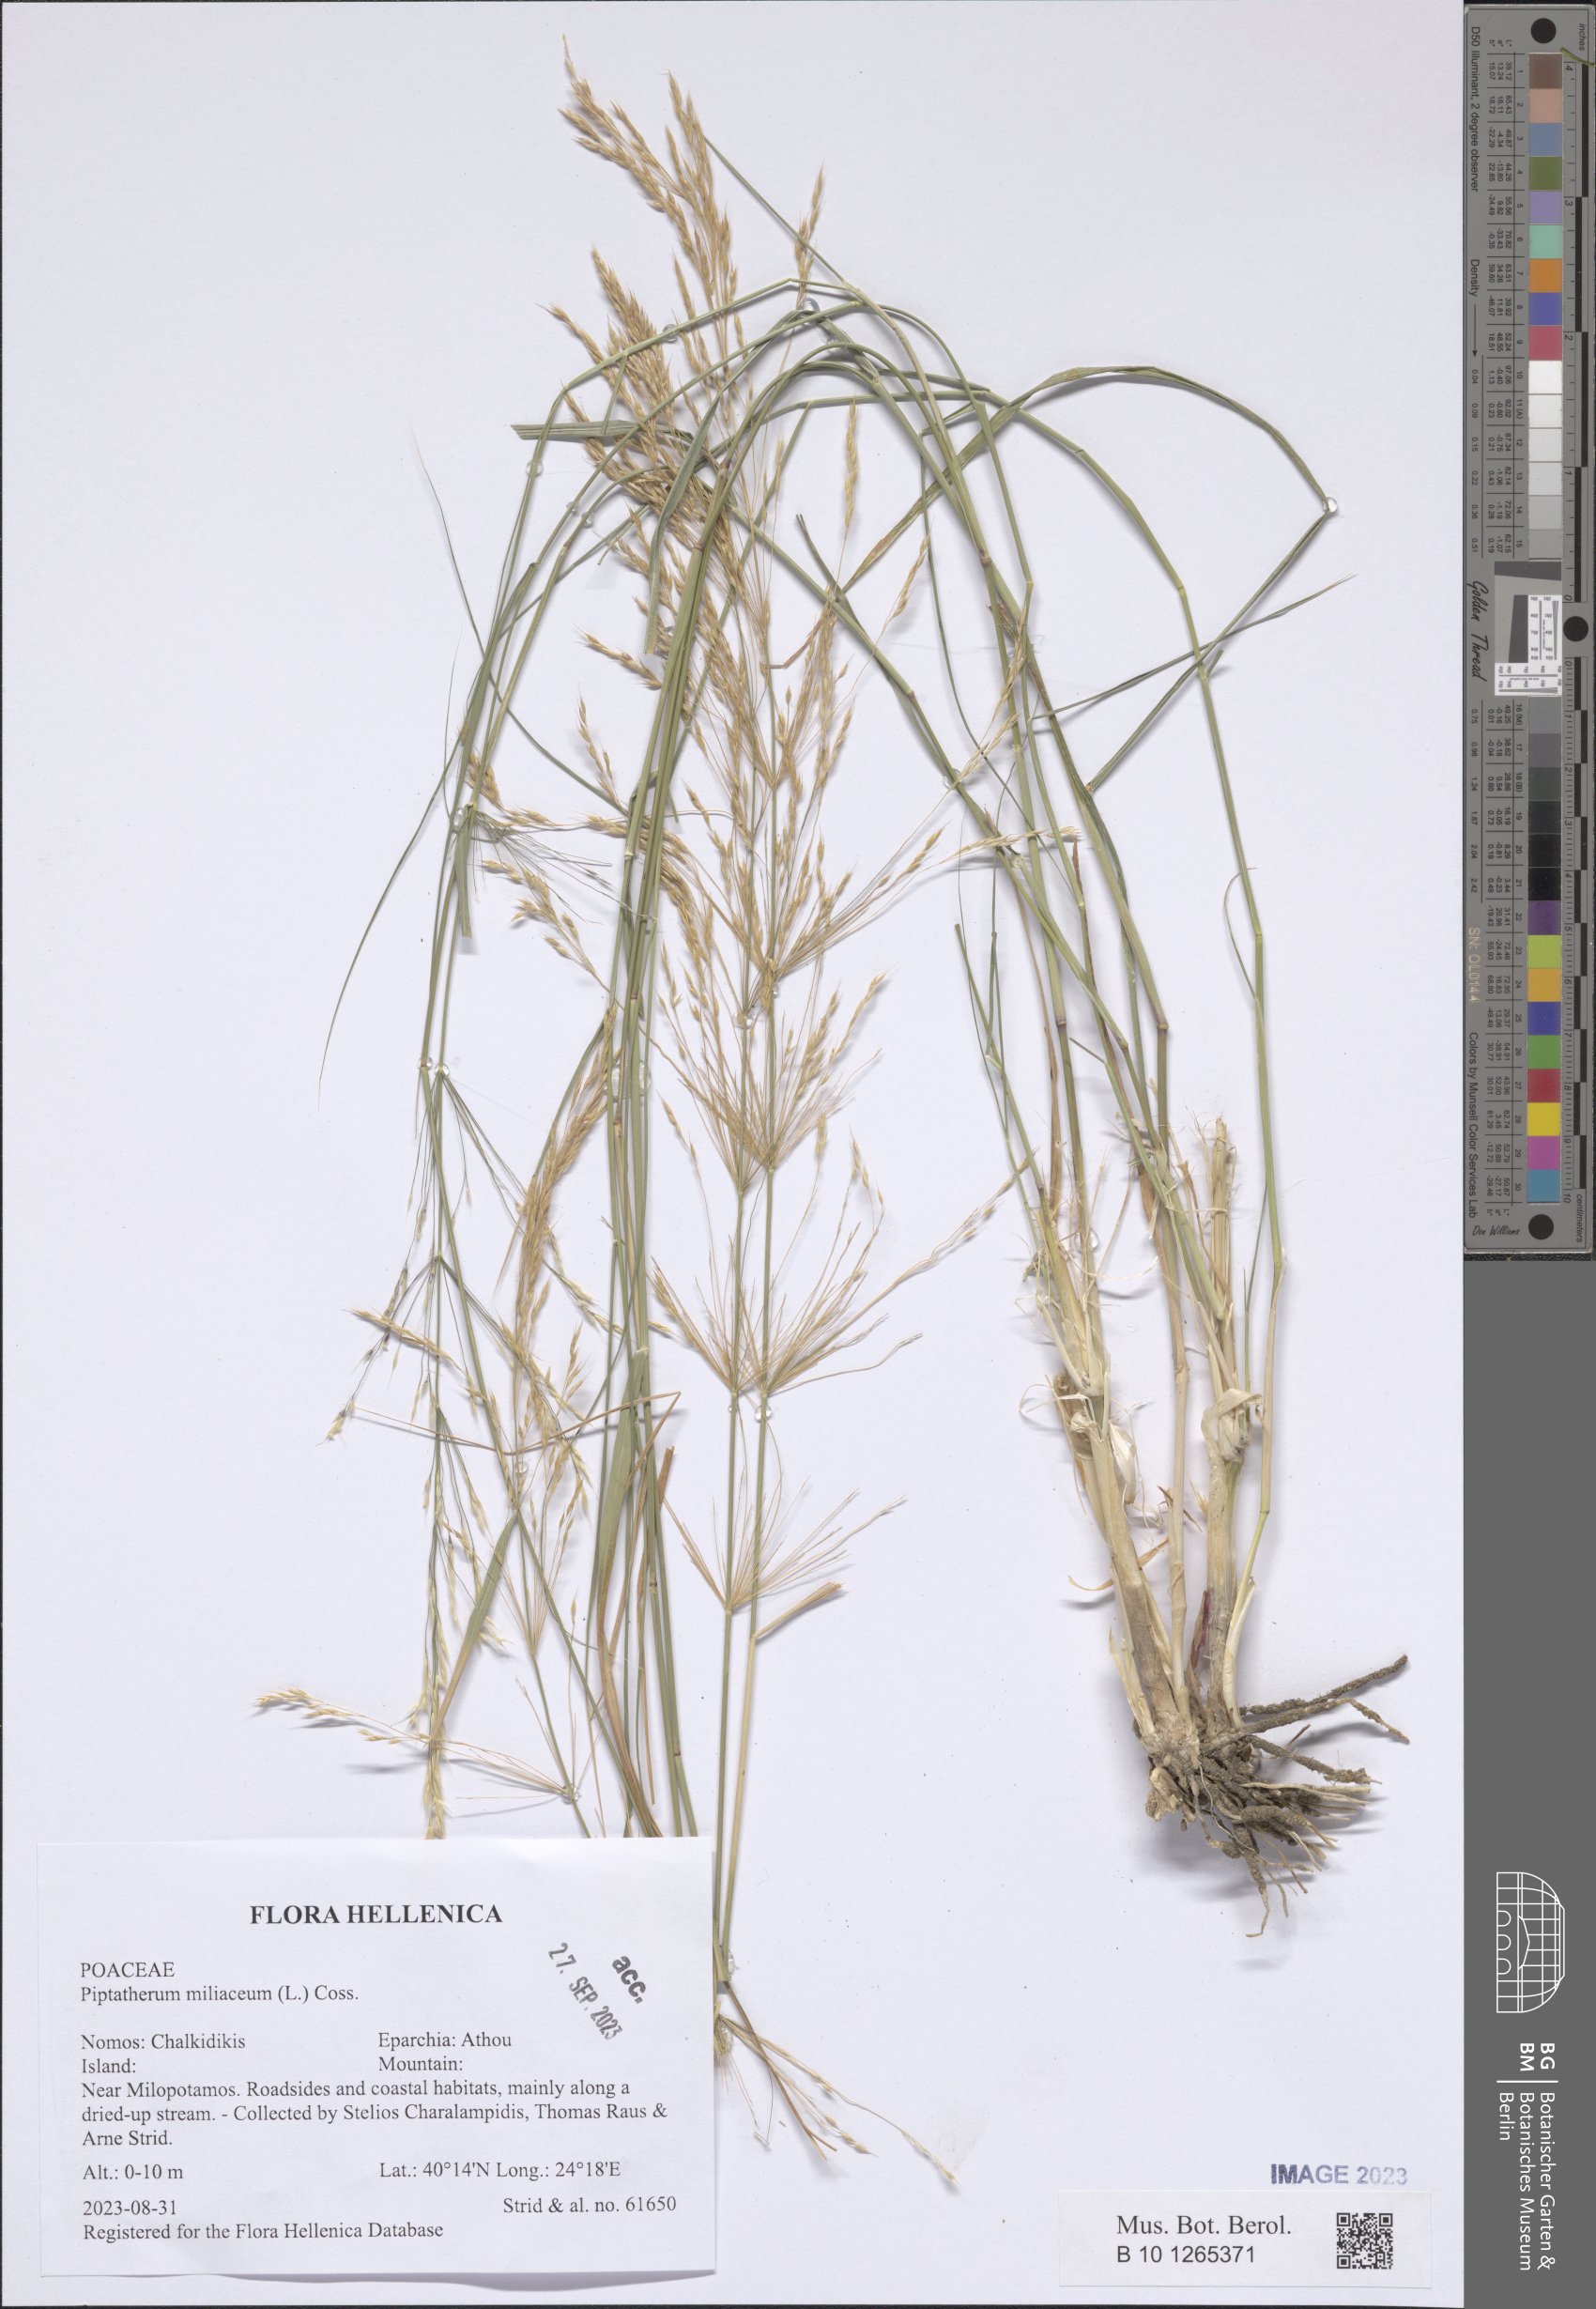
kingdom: Plantae
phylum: Tracheophyta
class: Liliopsida
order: Poales
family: Poaceae
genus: Oloptum
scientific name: Oloptum miliaceum
